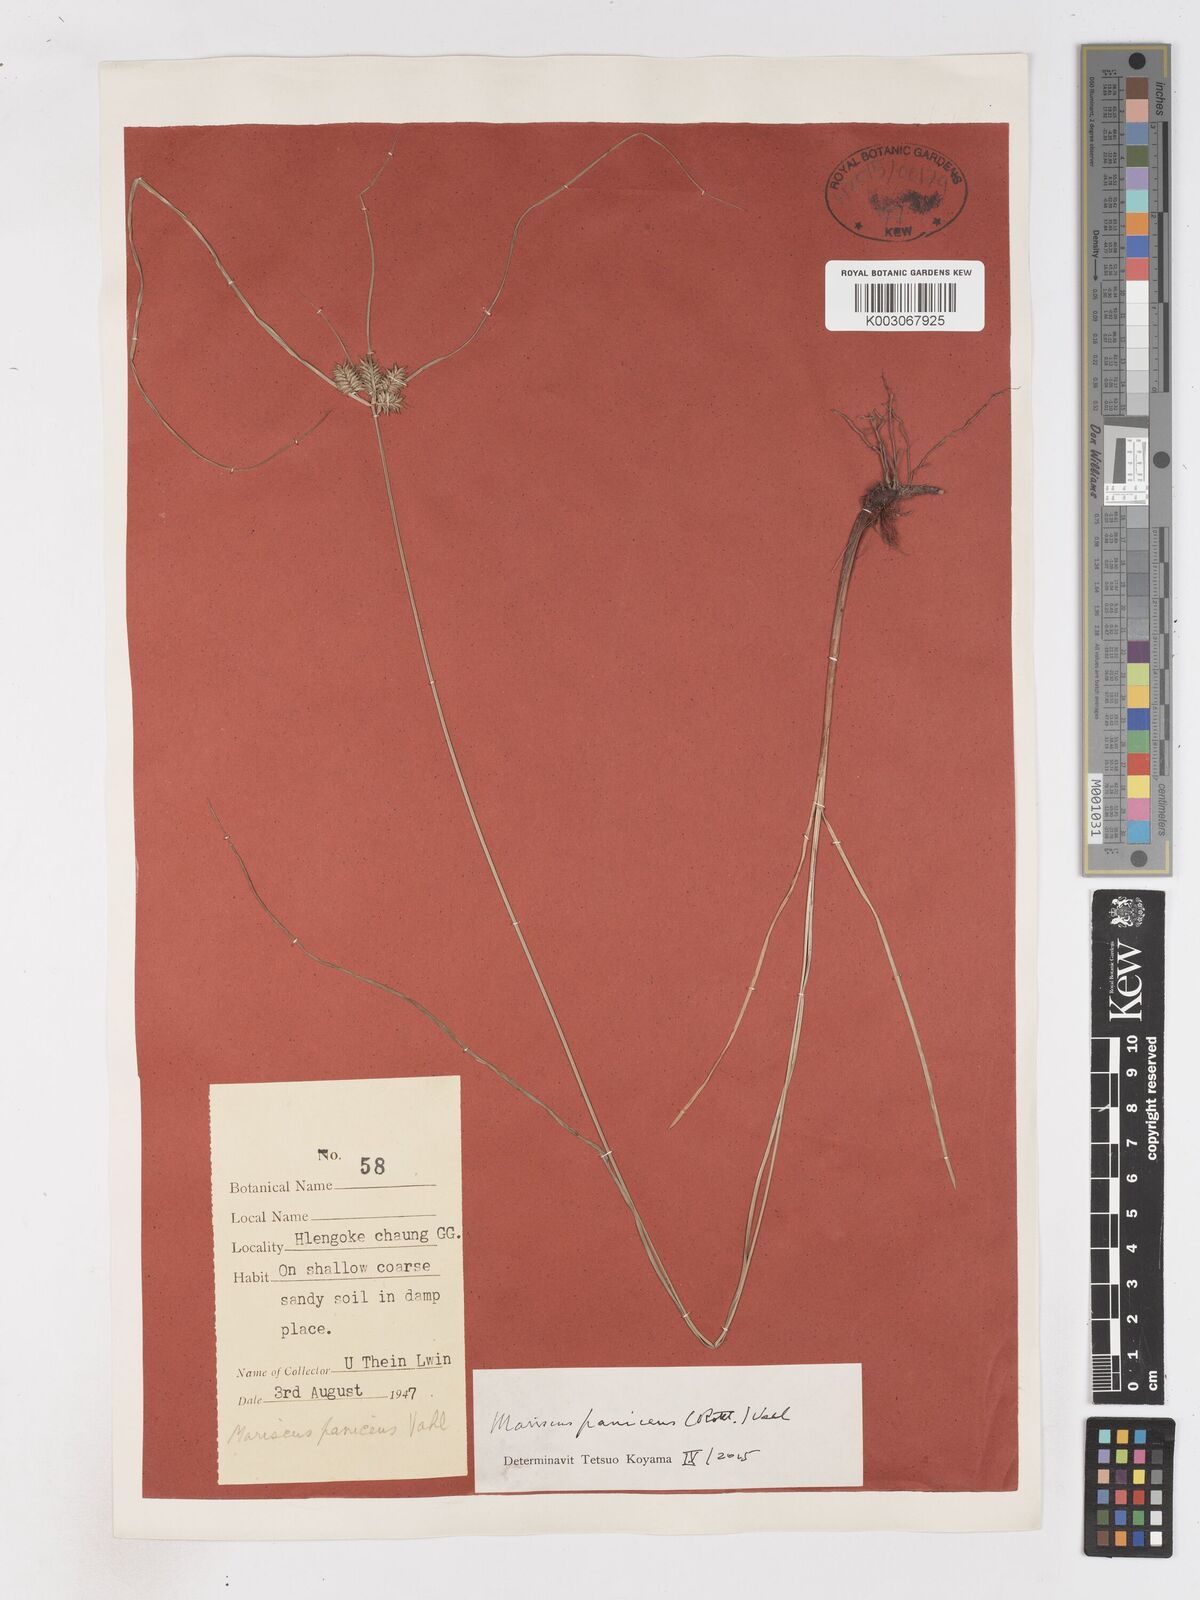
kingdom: Plantae
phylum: Tracheophyta
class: Liliopsida
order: Poales
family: Cyperaceae
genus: Cyperus
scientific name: Cyperus paniceus
